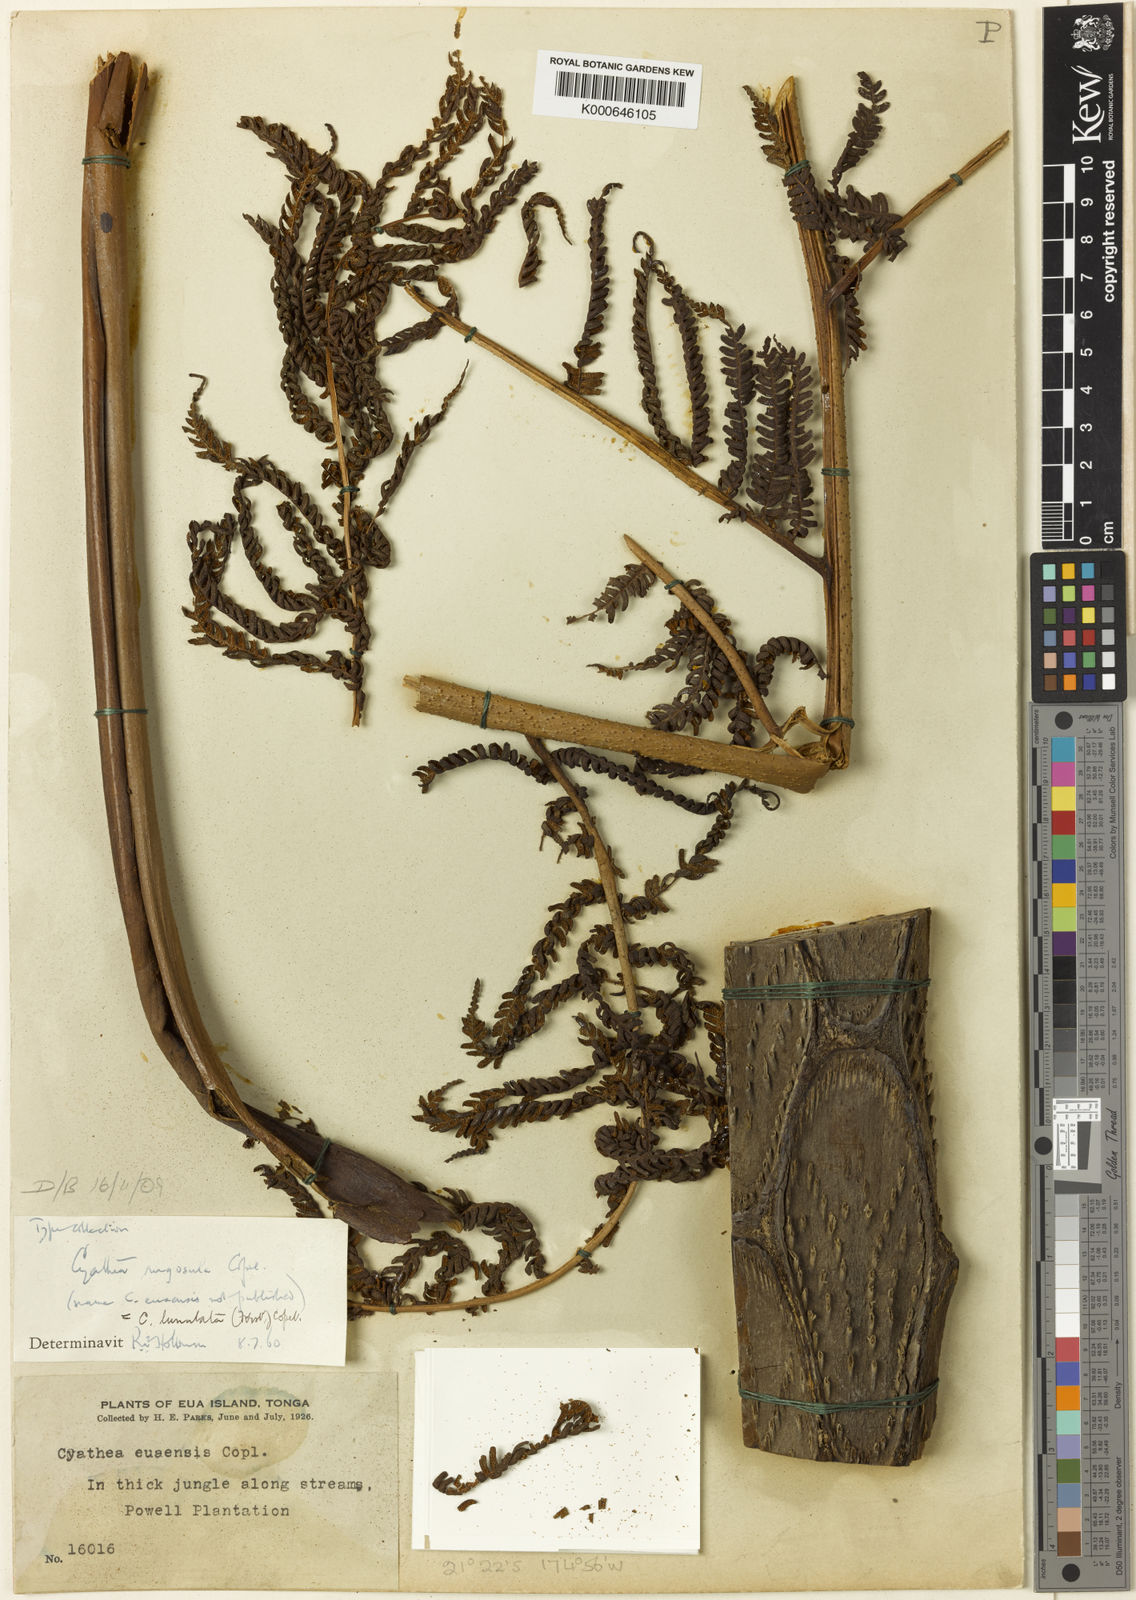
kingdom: Plantae
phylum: Tracheophyta
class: Polypodiopsida
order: Cyatheales
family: Cyatheaceae
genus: Sphaeropteris
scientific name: Sphaeropteris lunulata
